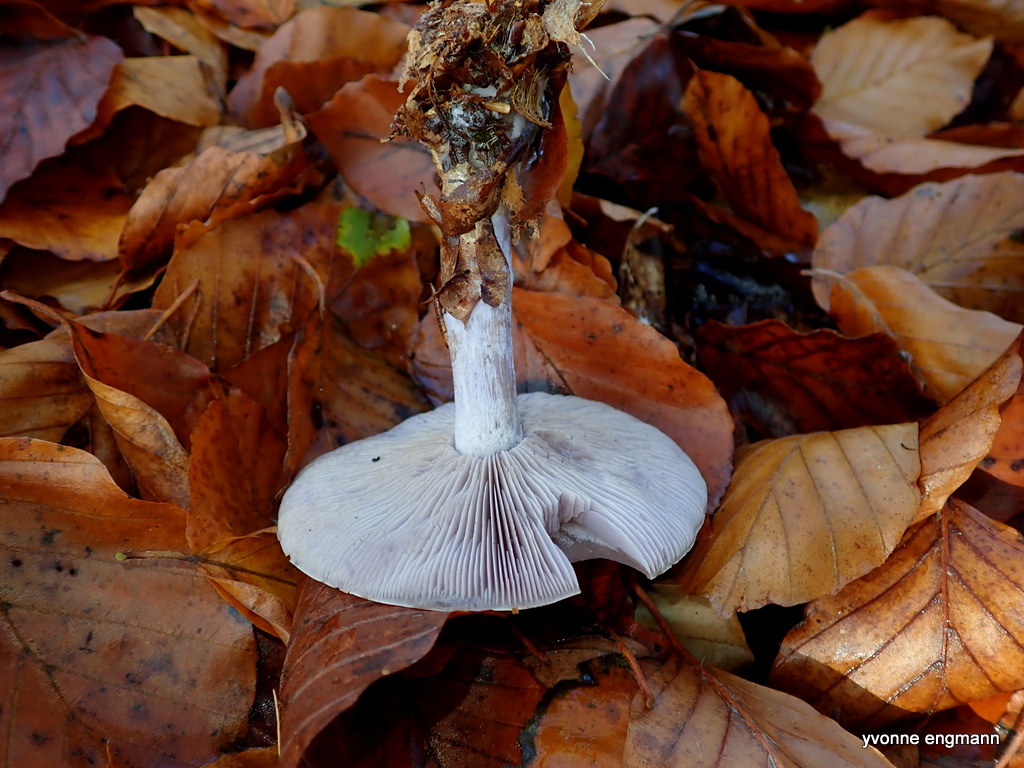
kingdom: Fungi
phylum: Basidiomycota
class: Agaricomycetes
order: Agaricales
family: Tricholomataceae
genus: Lepista
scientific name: Lepista nuda
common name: violet hekseringshat
